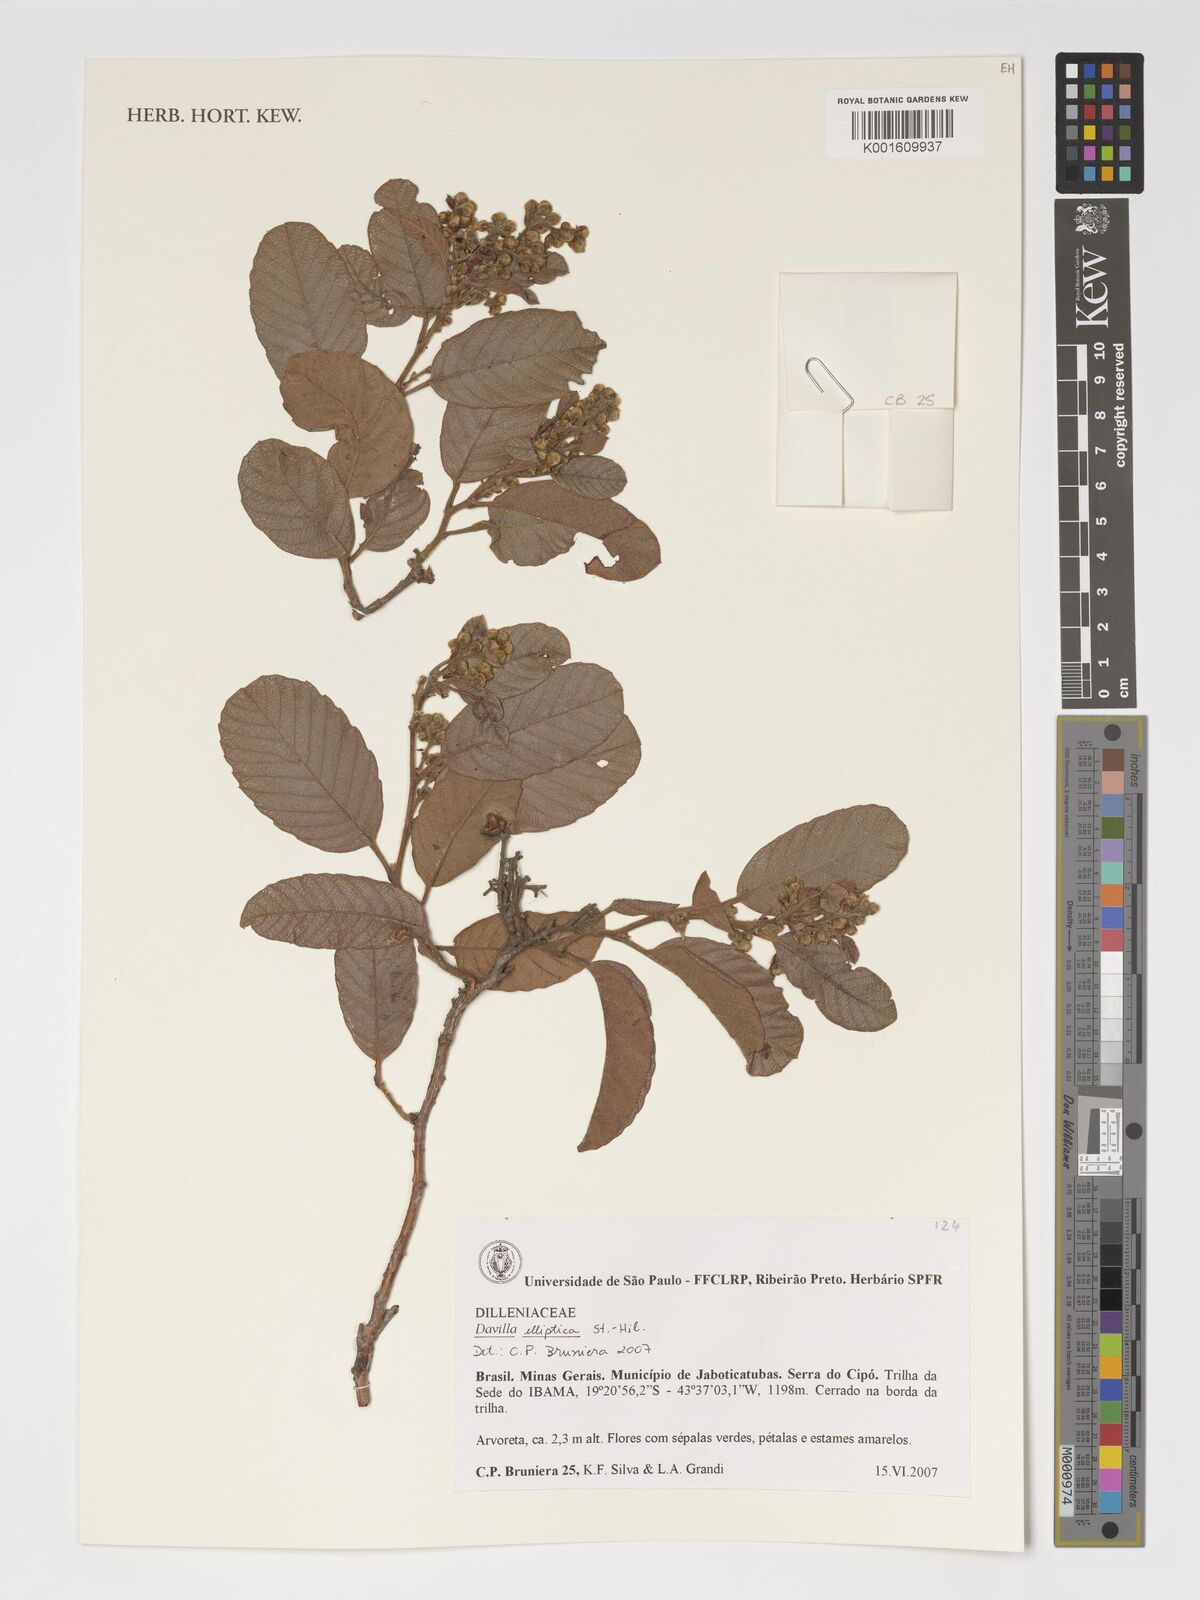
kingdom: Plantae
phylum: Tracheophyta
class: Magnoliopsida
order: Dilleniales
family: Dilleniaceae
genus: Davilla
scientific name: Davilla elliptica
